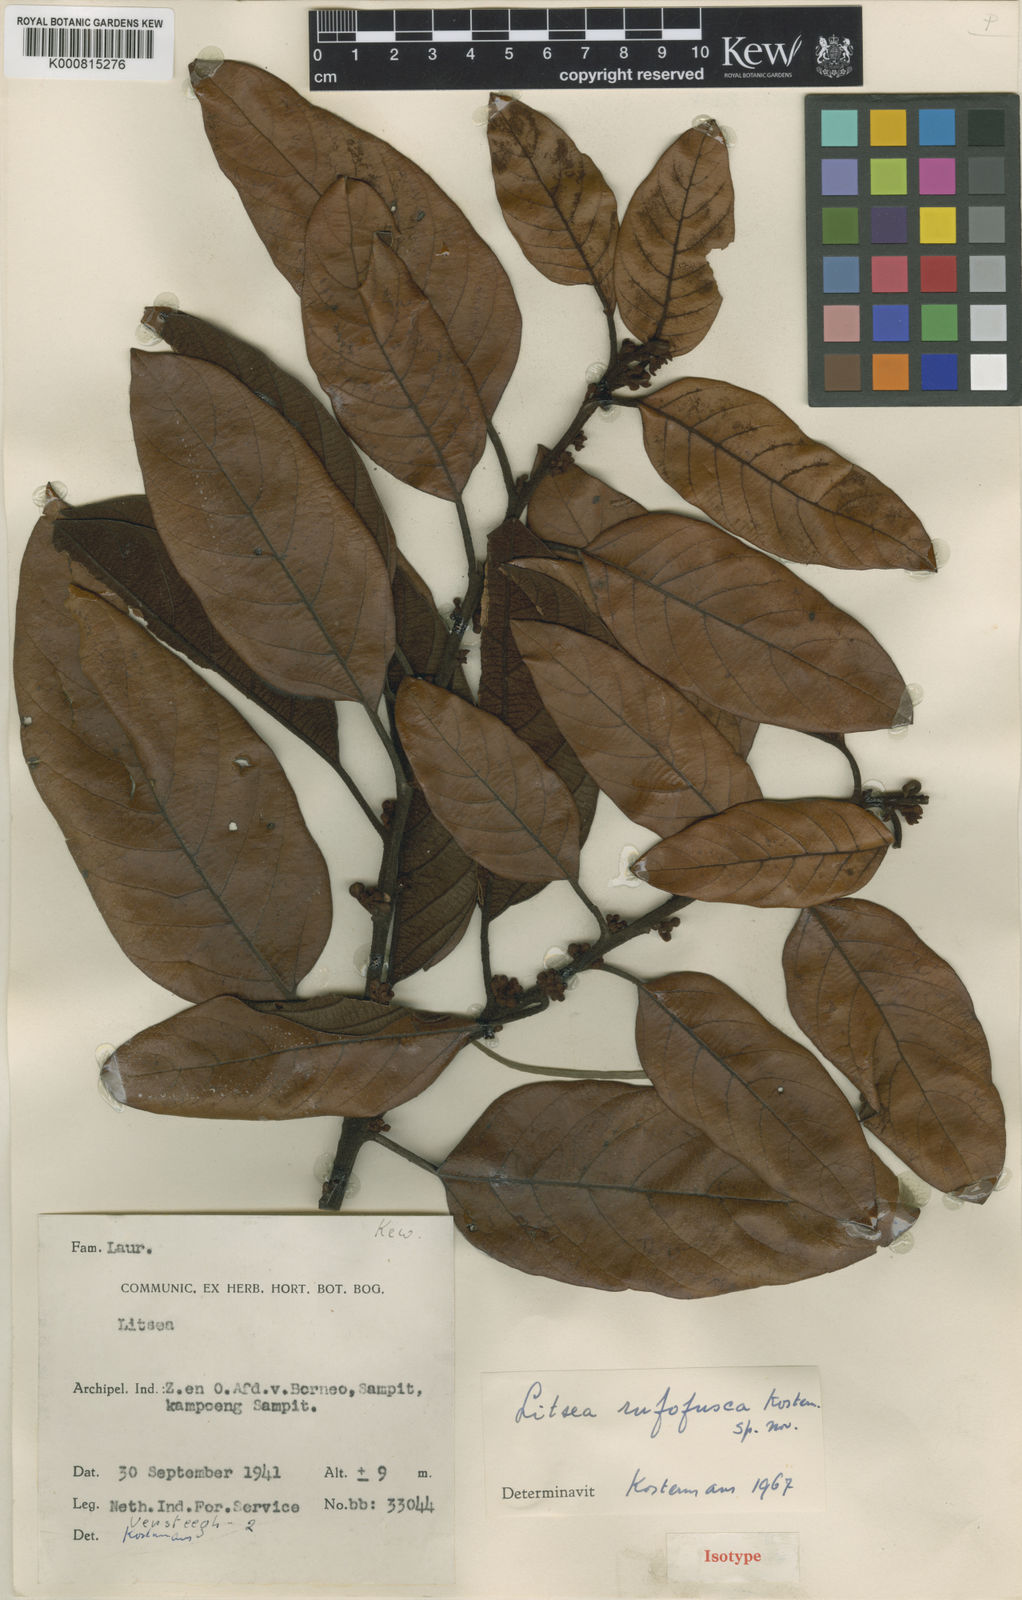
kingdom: Plantae
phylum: Tracheophyta
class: Magnoliopsida
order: Laurales
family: Lauraceae
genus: Litsea
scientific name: Litsea grandis
